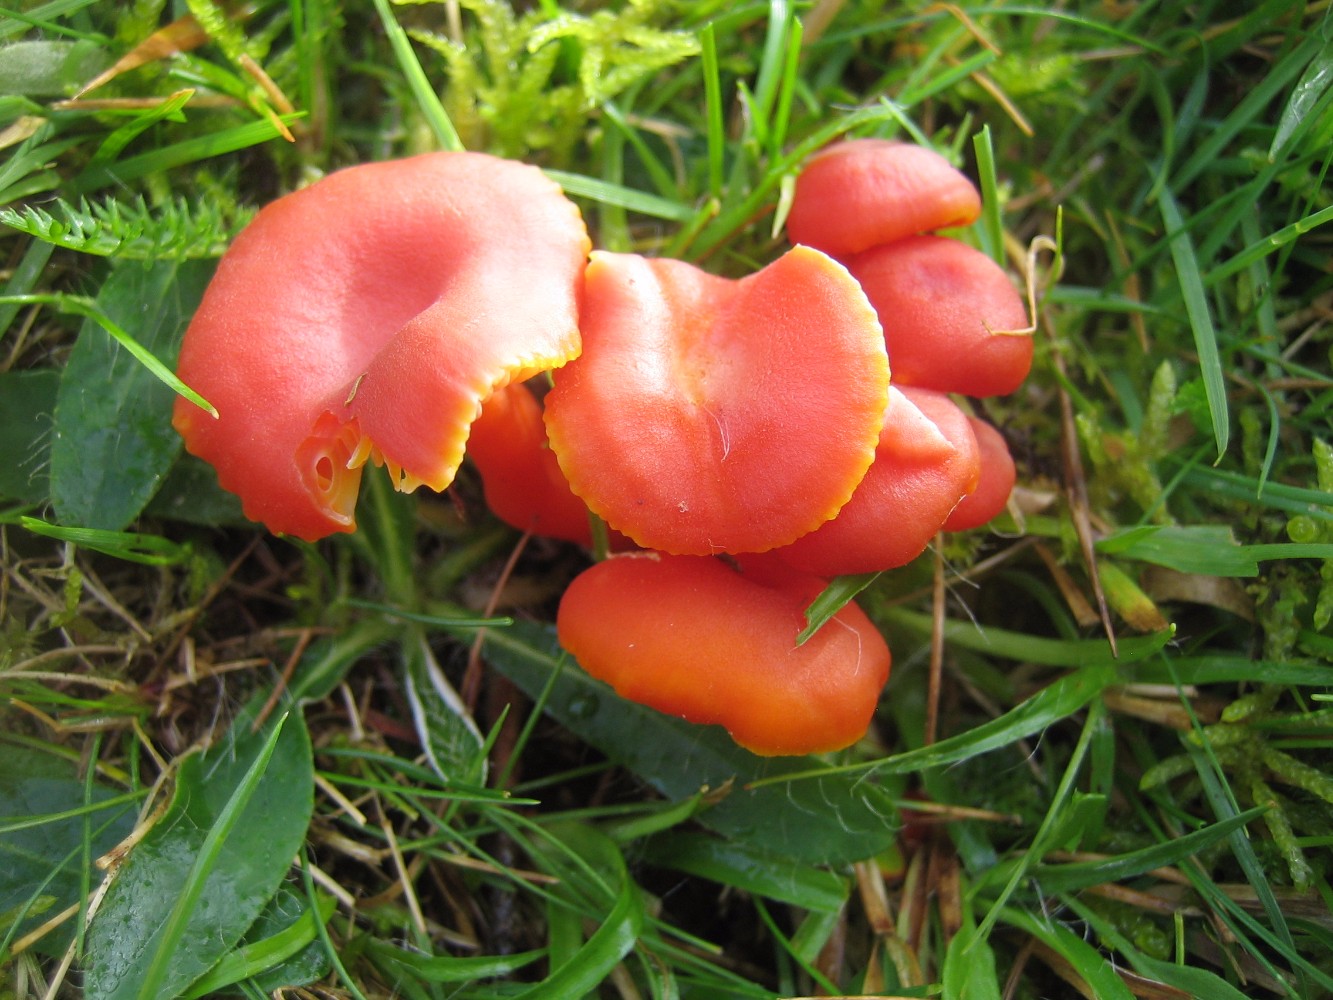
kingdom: Fungi
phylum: Basidiomycota
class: Agaricomycetes
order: Agaricales
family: Hygrophoraceae
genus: Hygrocybe
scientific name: Hygrocybe miniata
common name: mønje-vokshat
